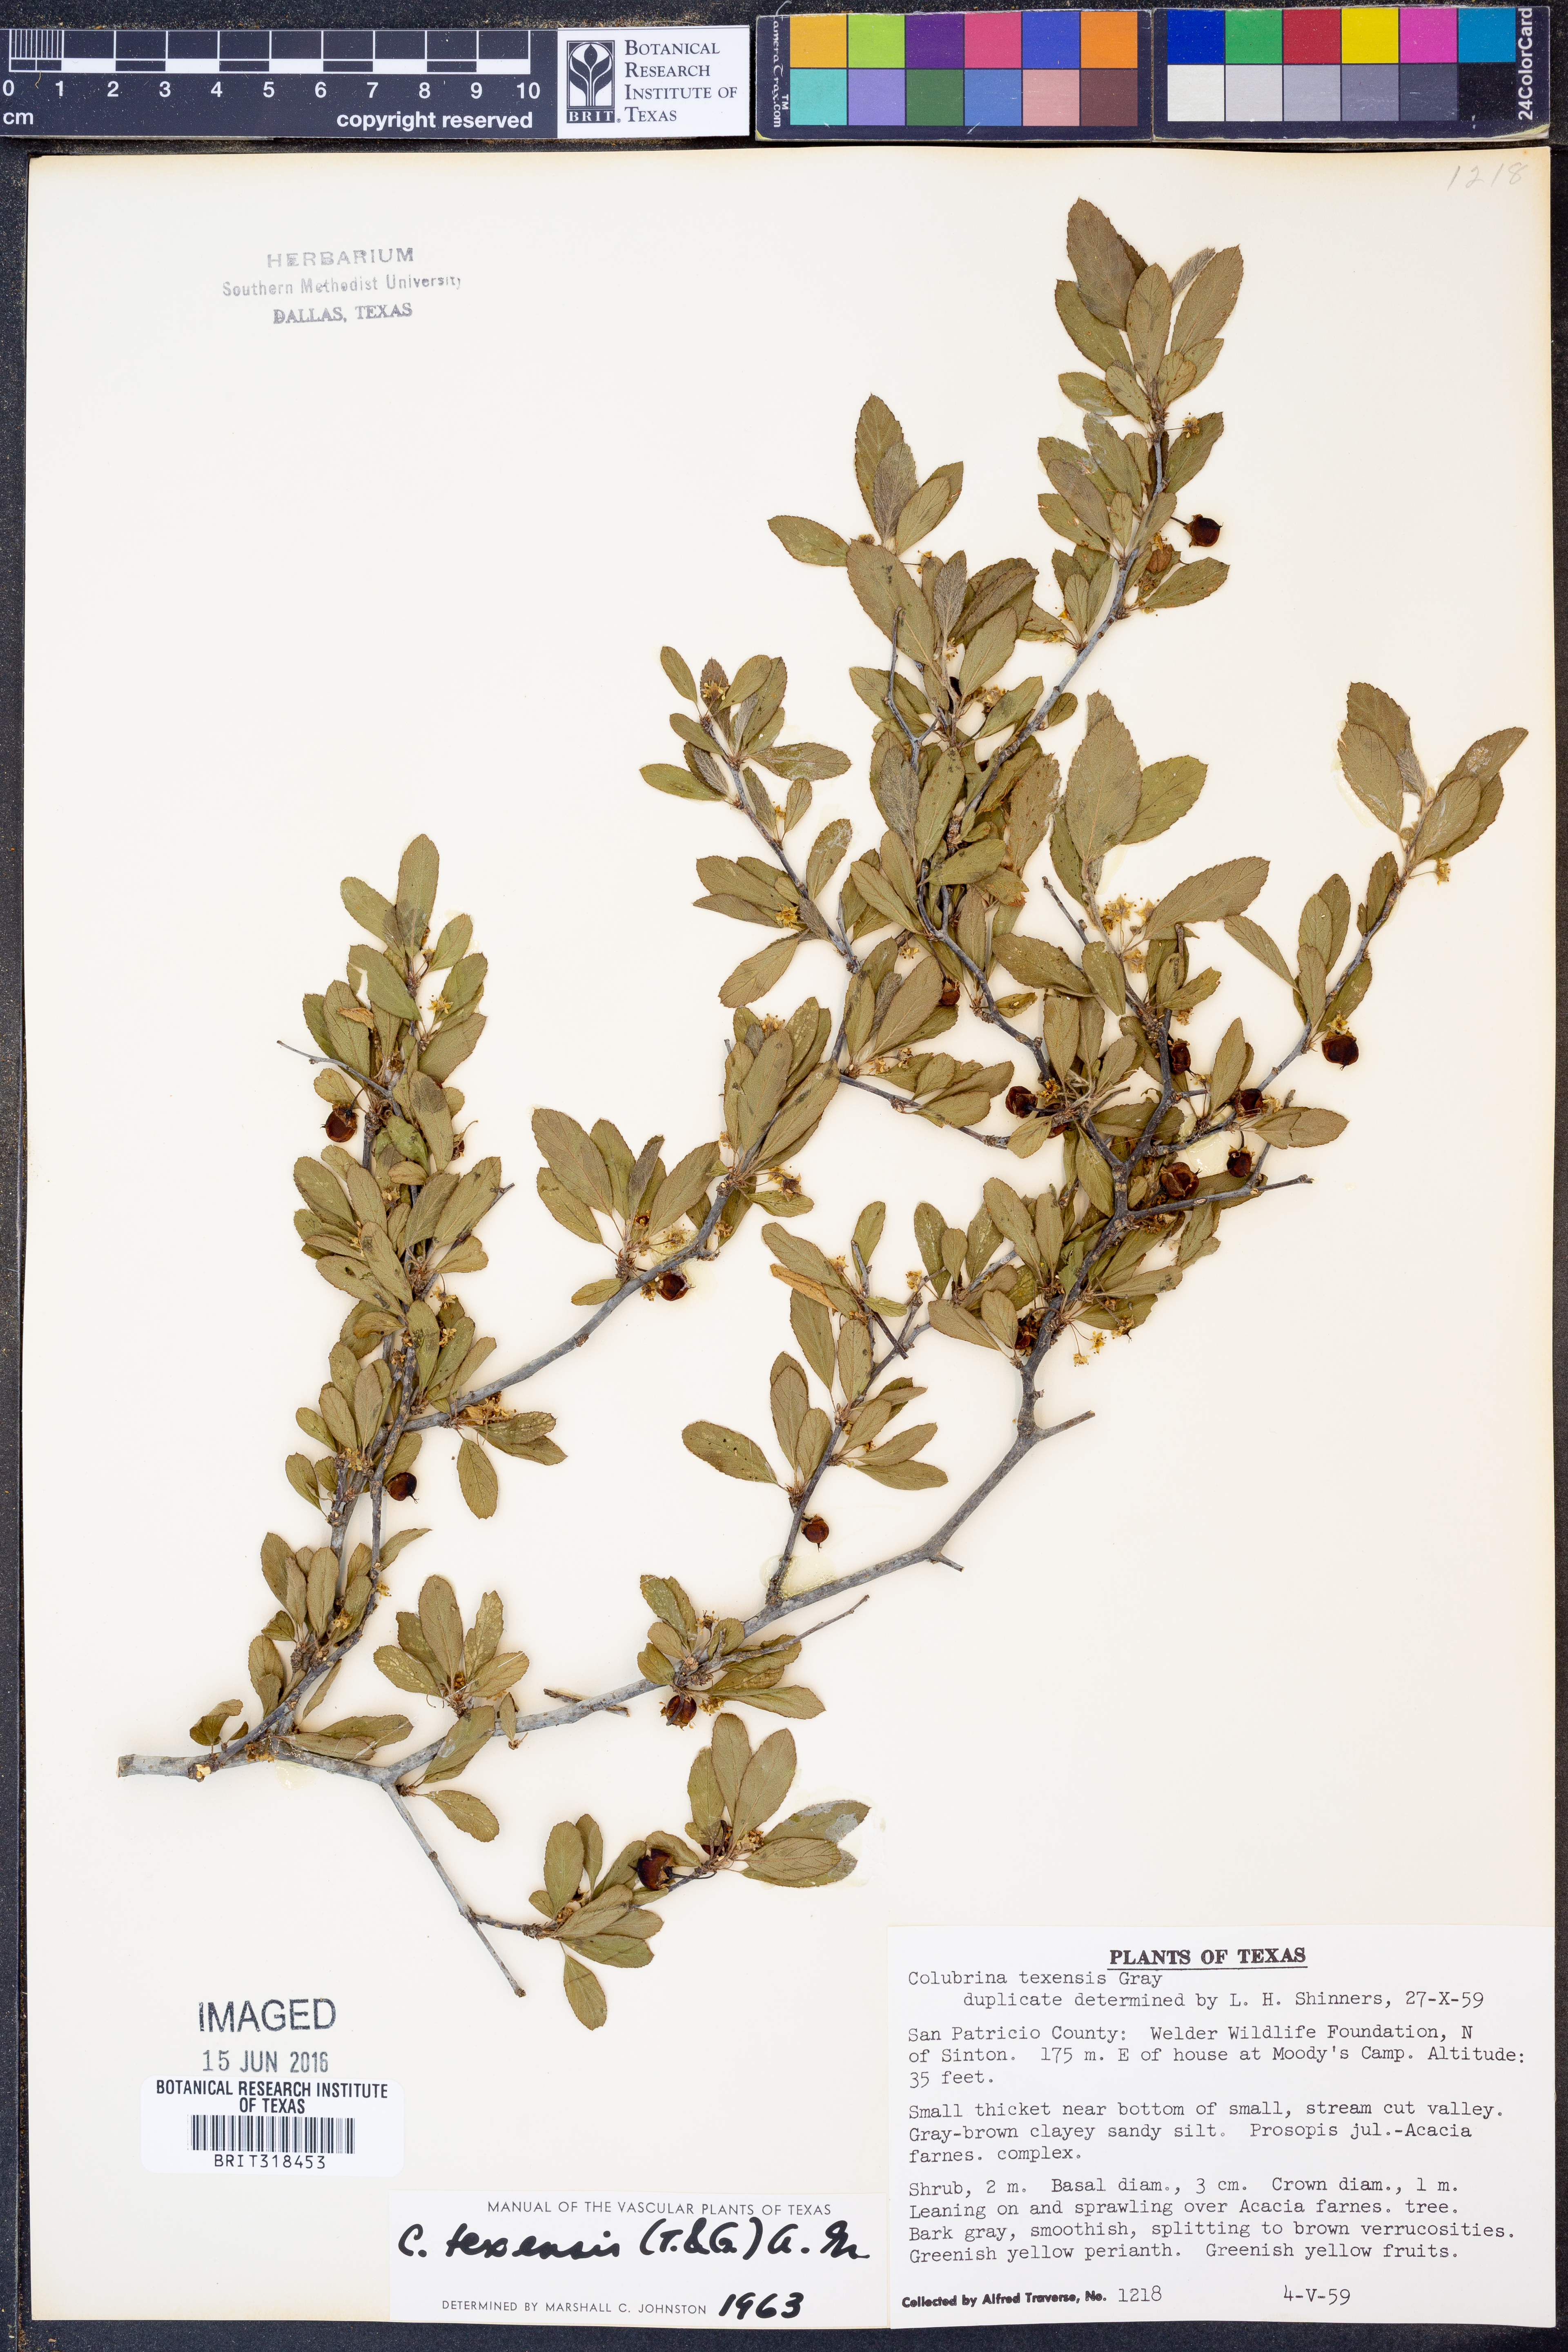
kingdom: Plantae
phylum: Tracheophyta
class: Magnoliopsida
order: Rosales
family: Rhamnaceae
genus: Colubrina
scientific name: Colubrina texensis
